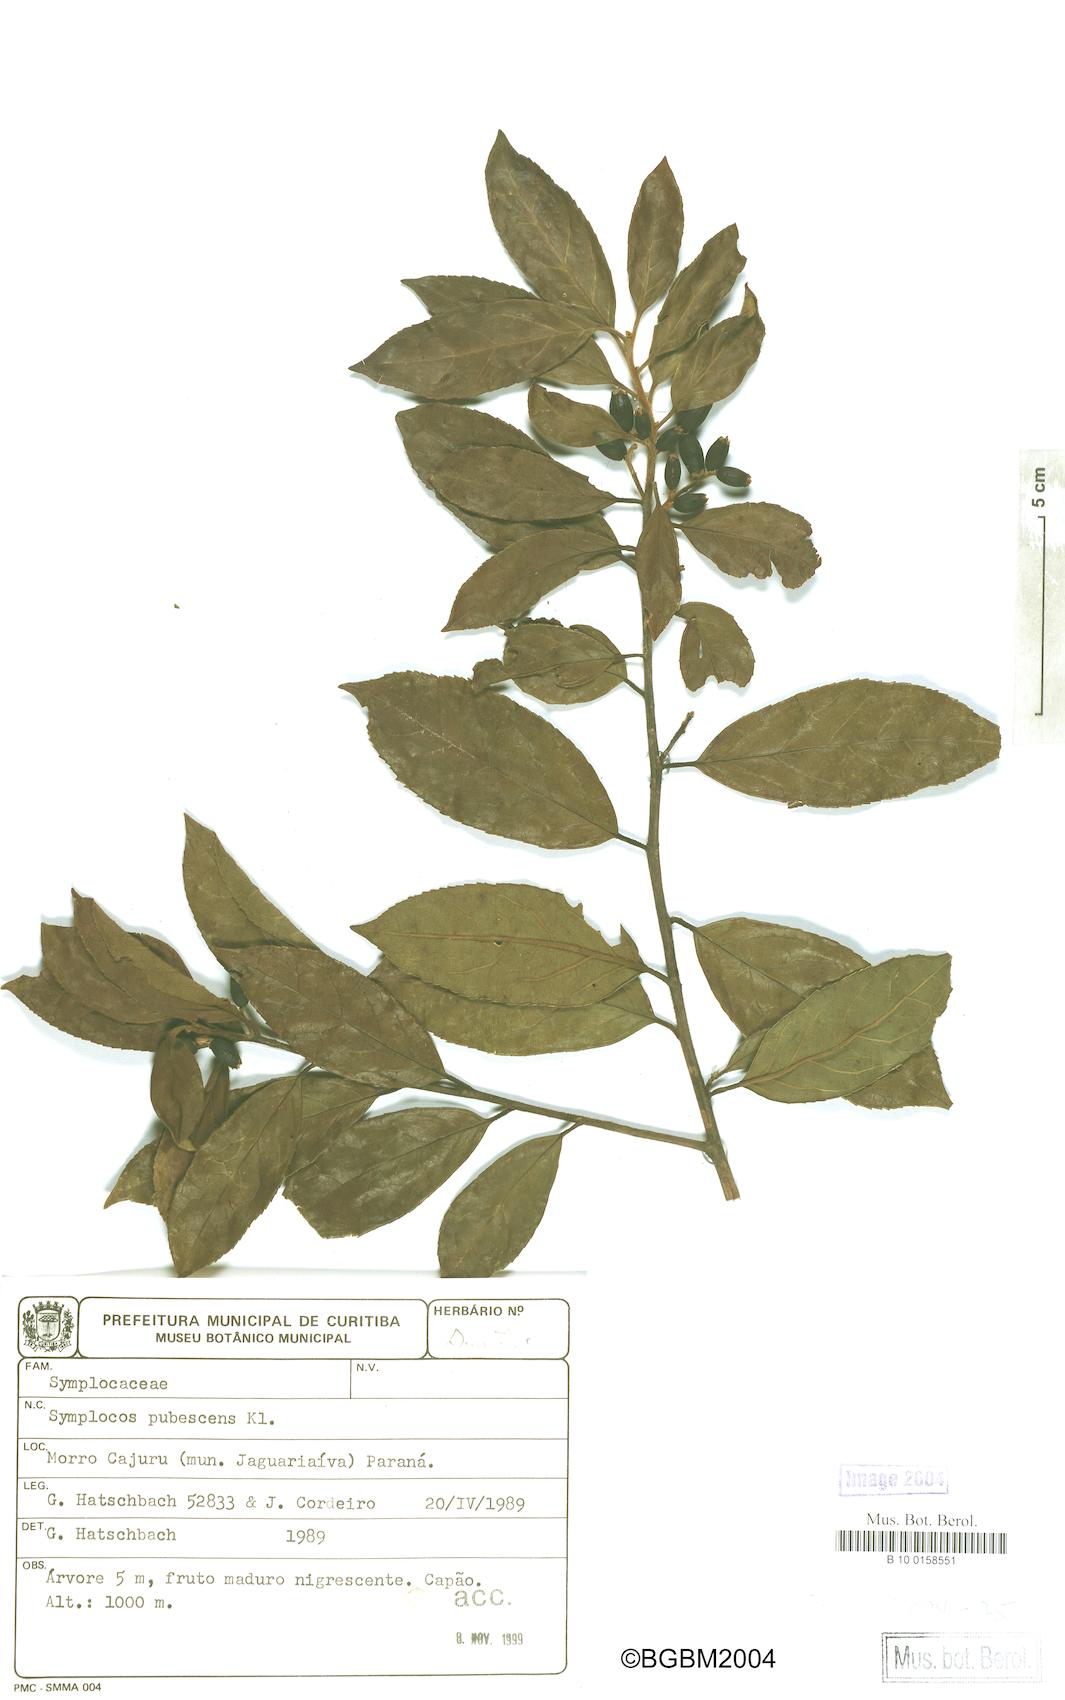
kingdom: Plantae
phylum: Tracheophyta
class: Magnoliopsida
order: Ericales
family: Symplocaceae
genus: Symplocos
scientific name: Symplocos pubescens
